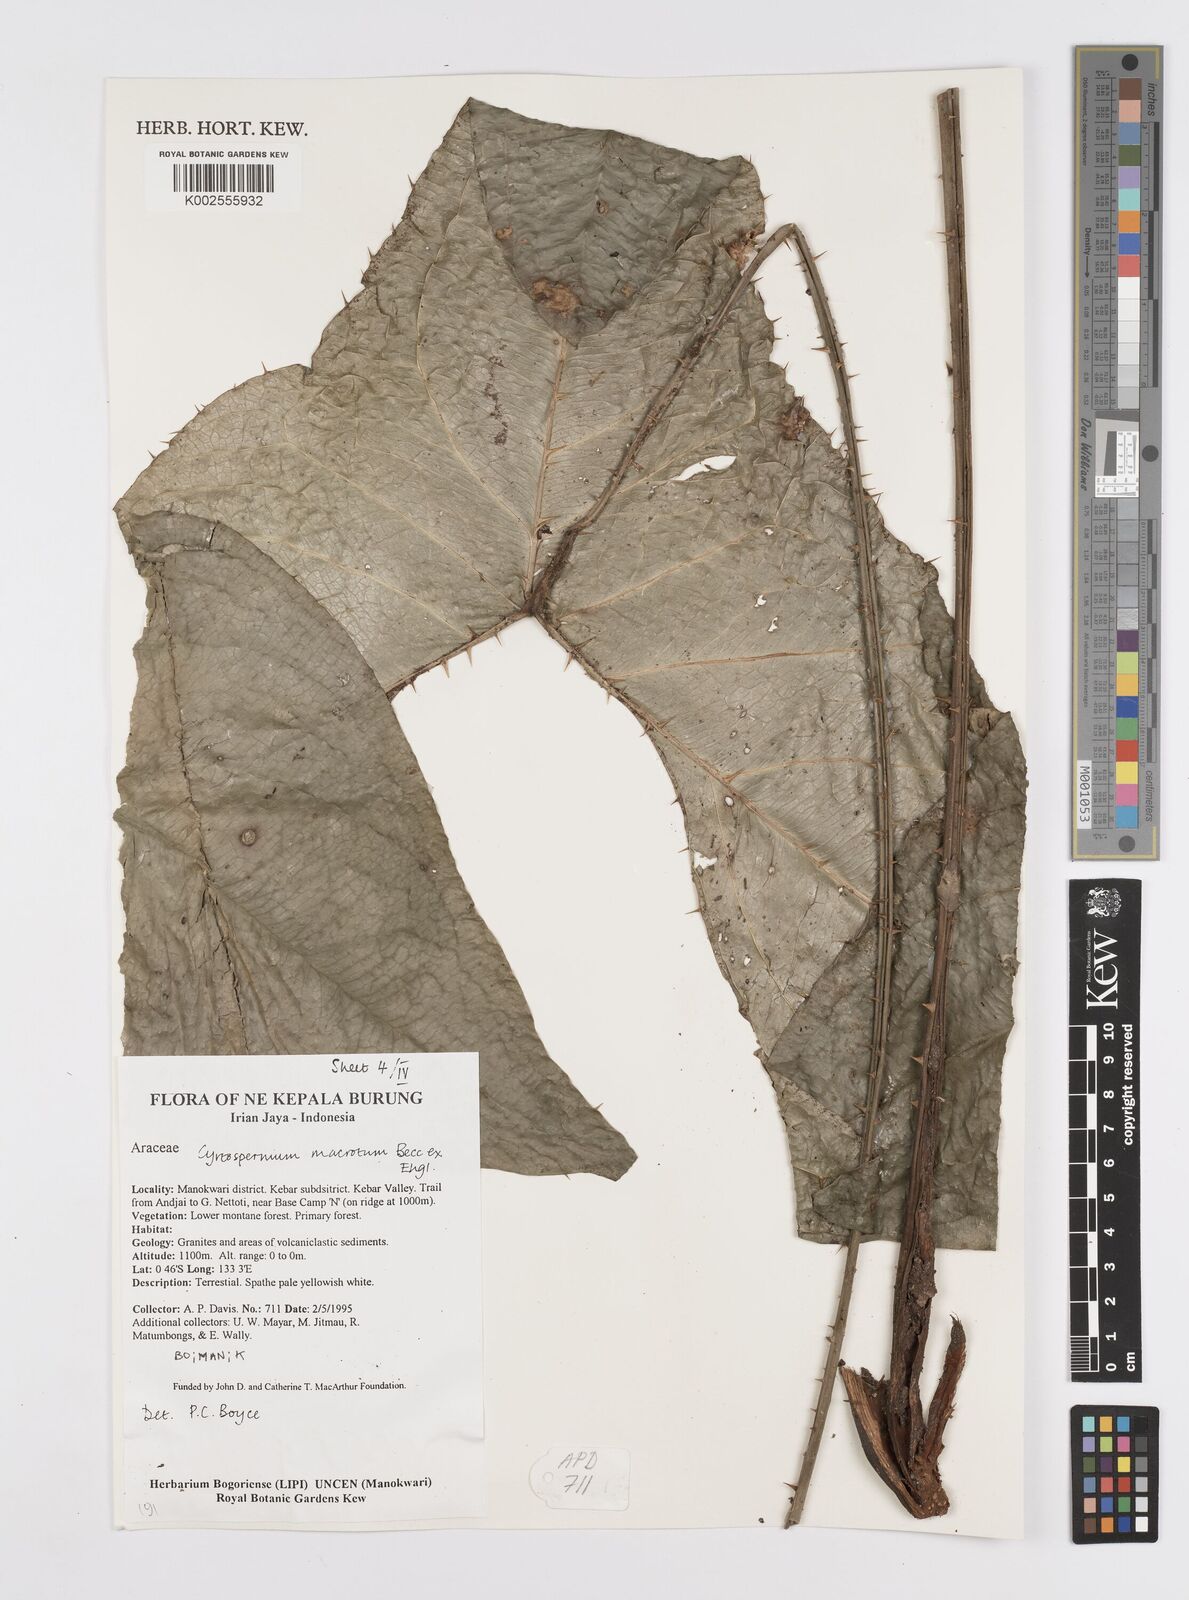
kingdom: Plantae
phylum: Tracheophyta
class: Liliopsida
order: Alismatales
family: Araceae
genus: Cyrtosperma
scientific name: Cyrtosperma macrotum
